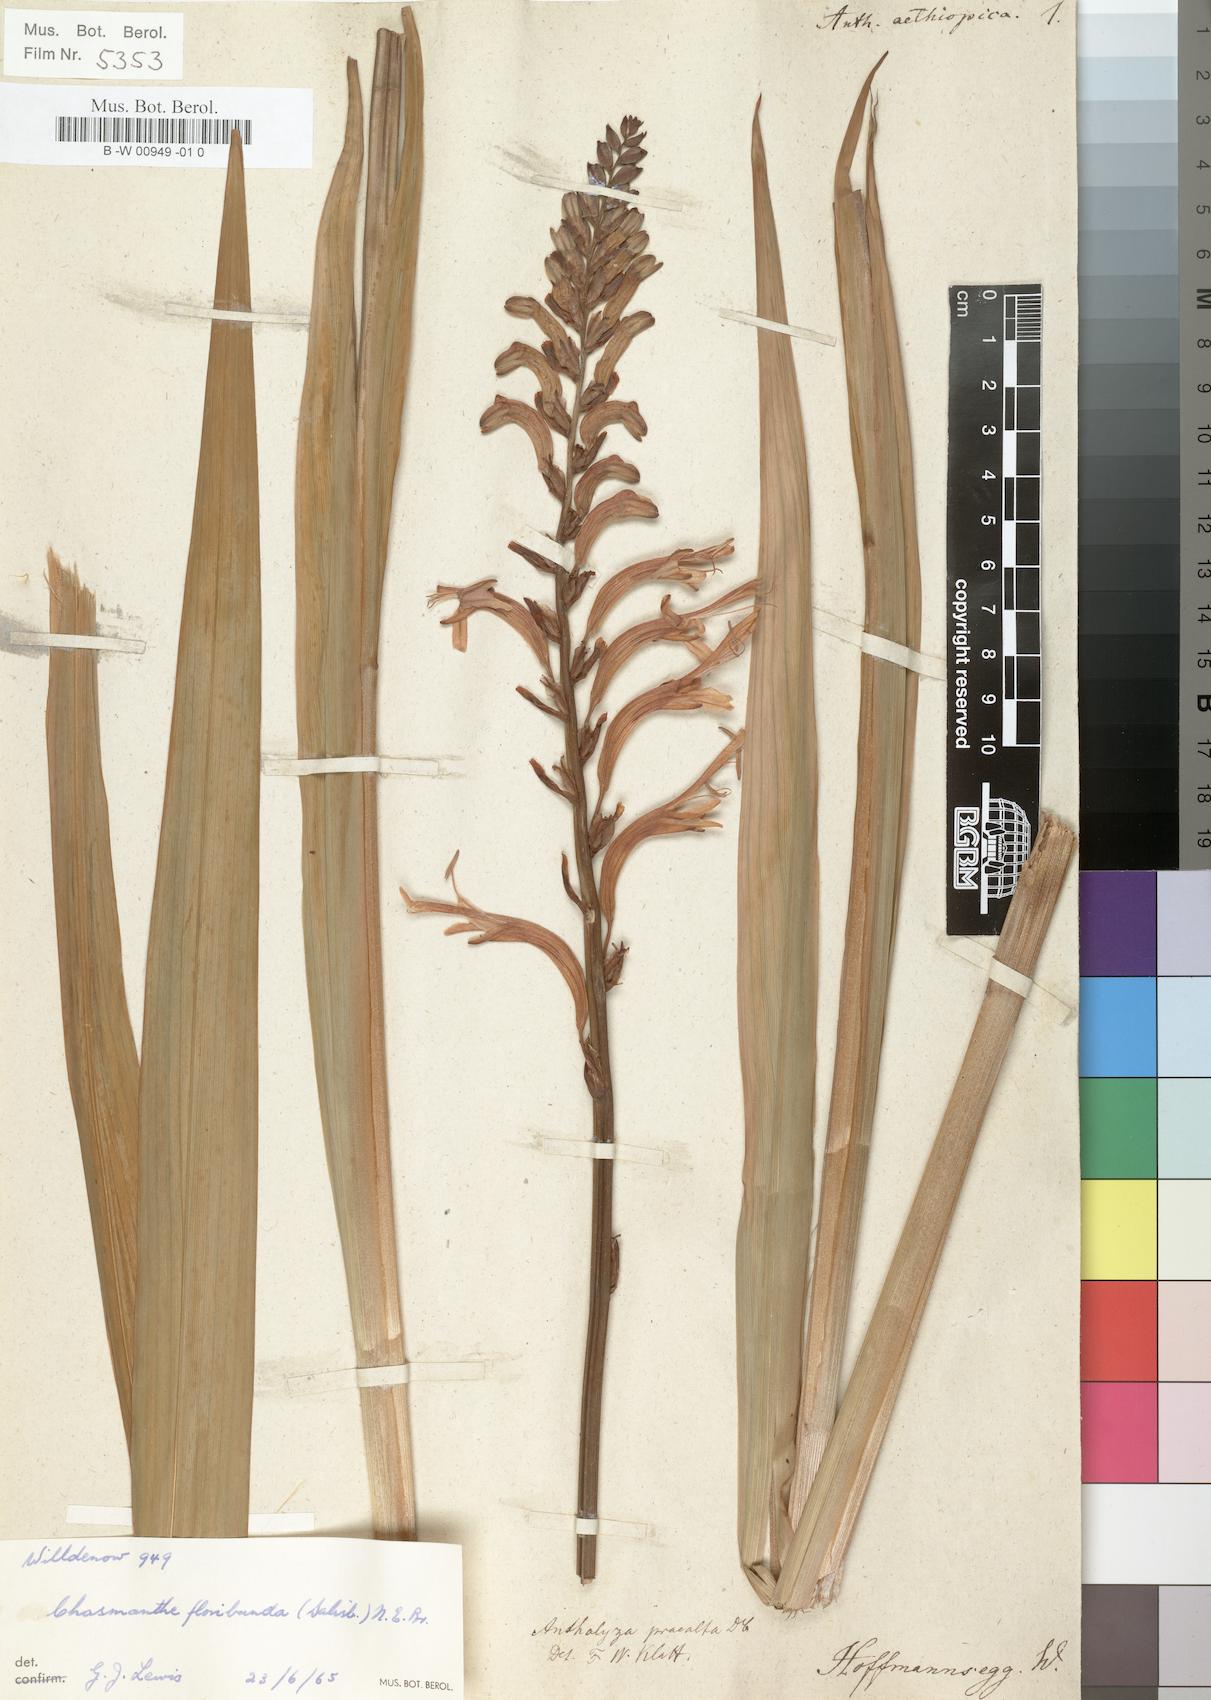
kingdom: Plantae
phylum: Tracheophyta
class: Liliopsida
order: Asparagales
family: Iridaceae
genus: Chasmanthe
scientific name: Chasmanthe aethiopica
